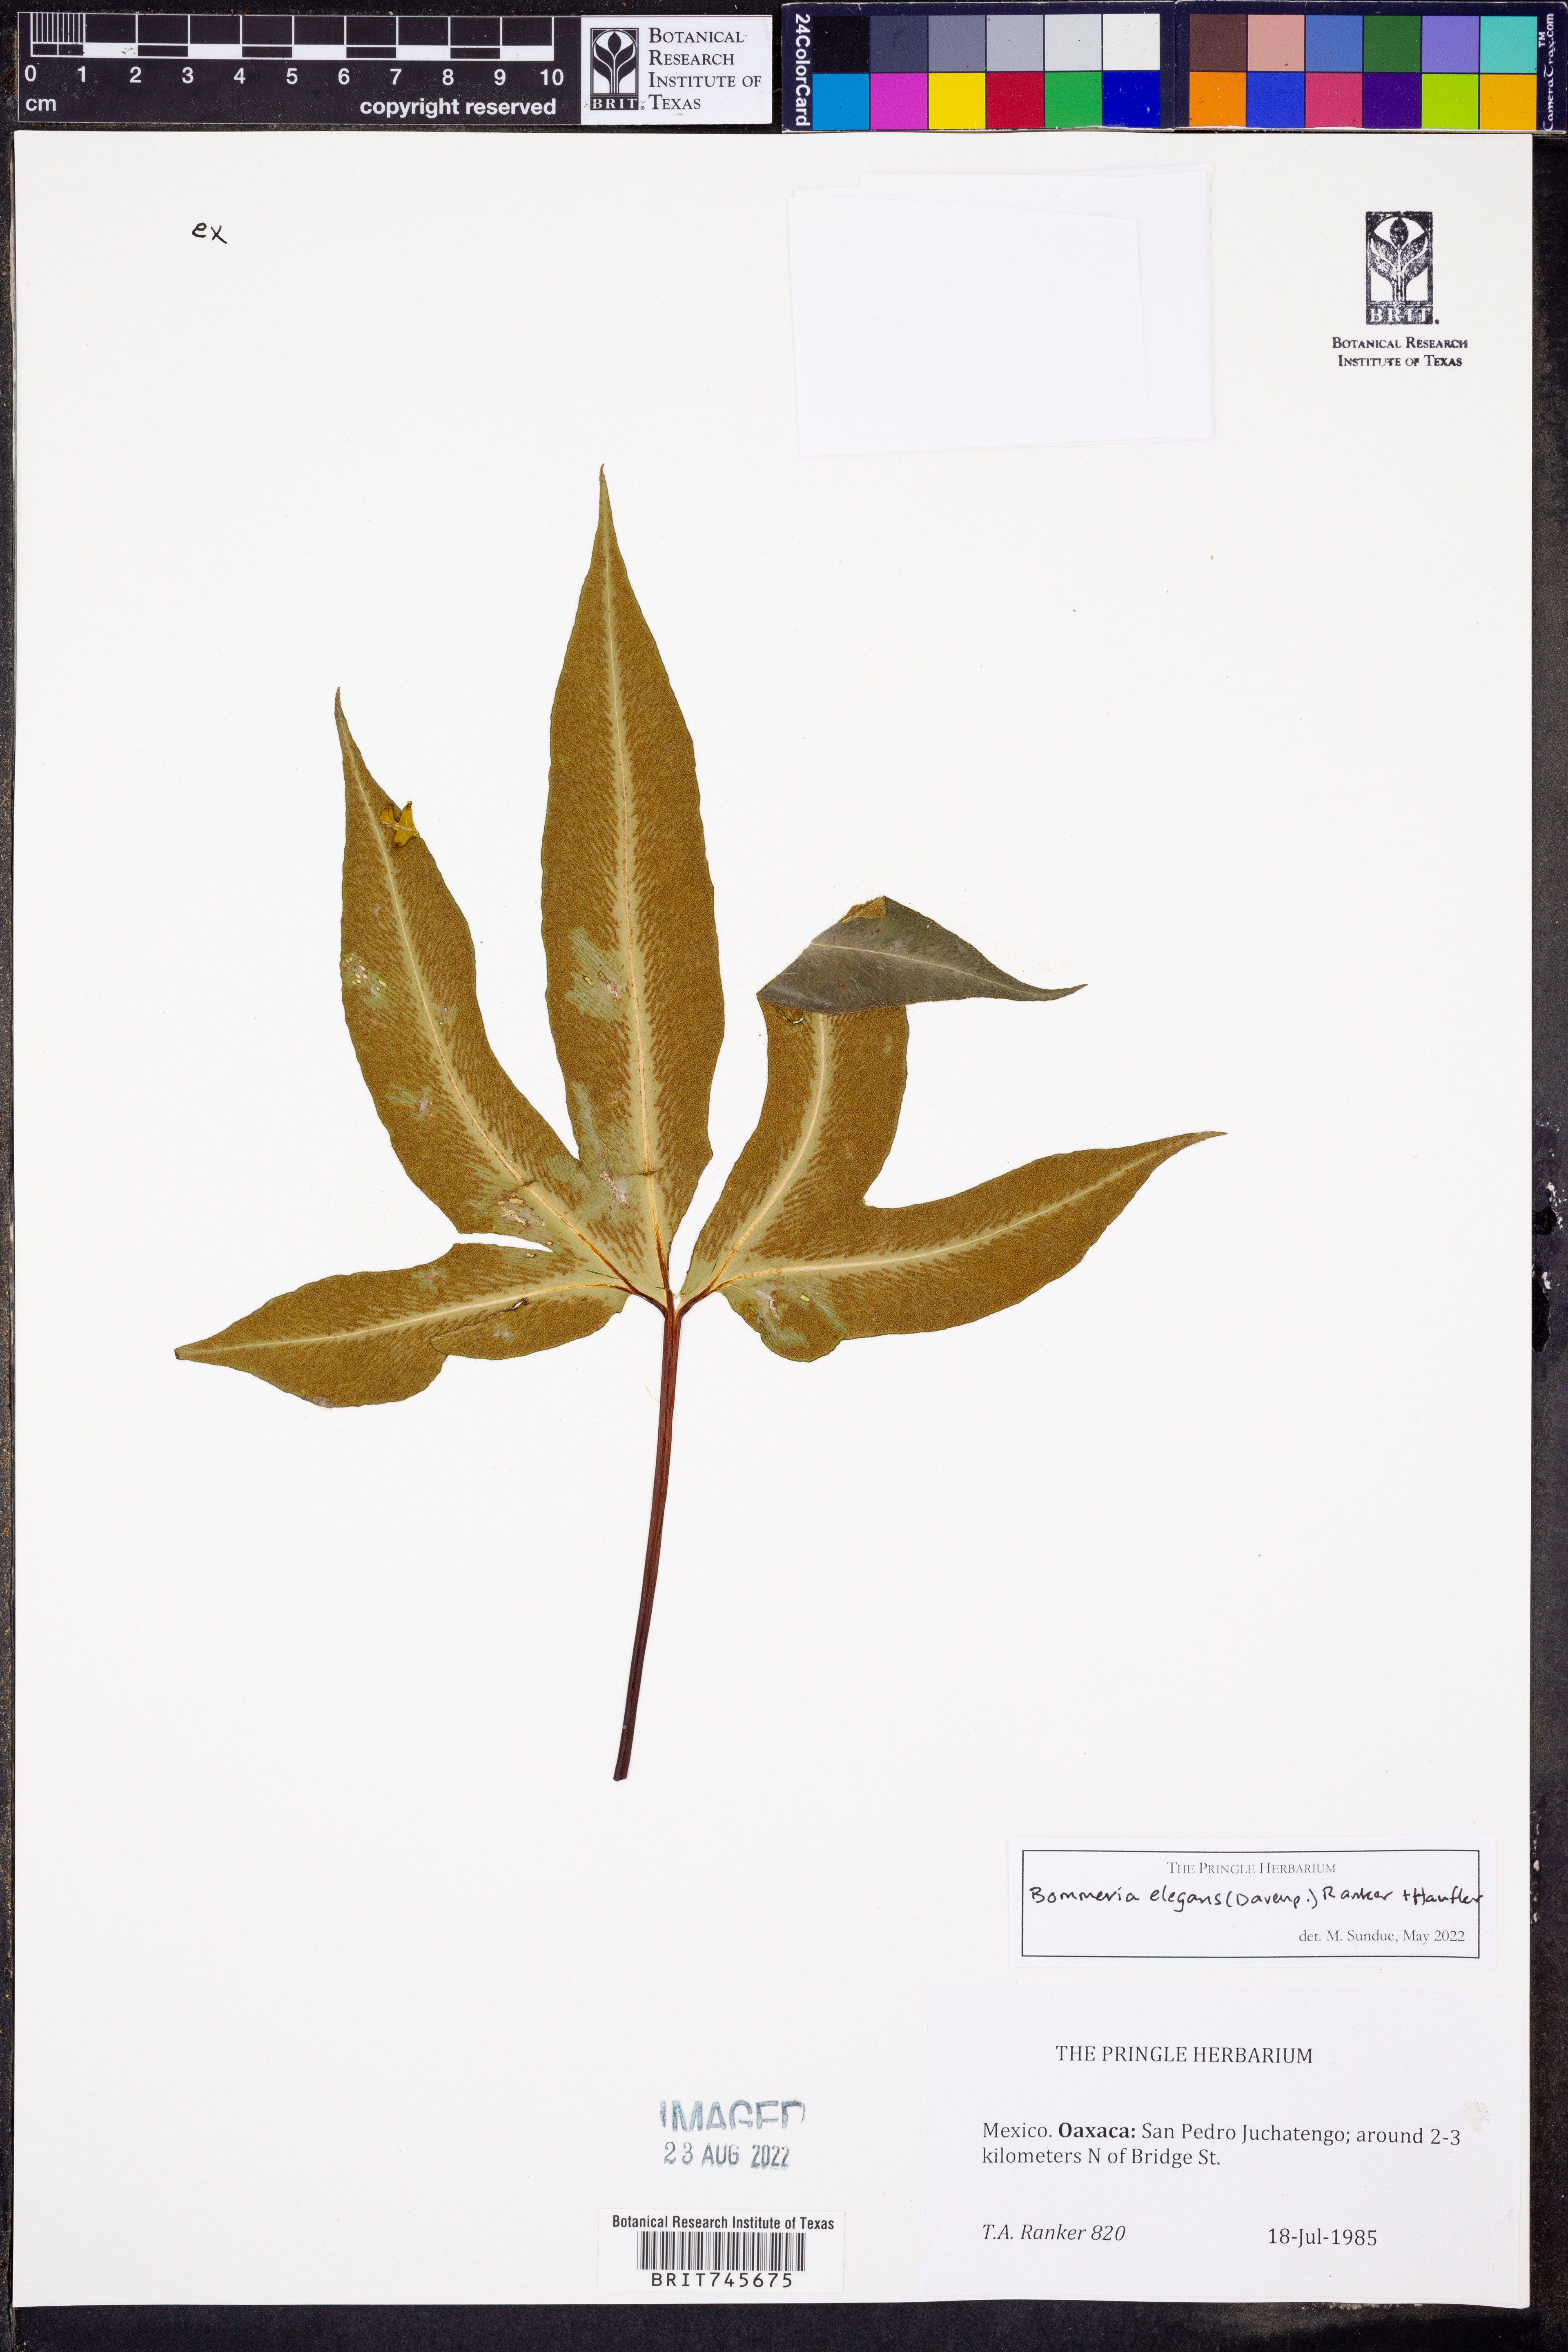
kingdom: Plantae
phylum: Tracheophyta
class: Polypodiopsida
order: Polypodiales
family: Pteridaceae
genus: Bommeria
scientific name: Bommeria elegans
